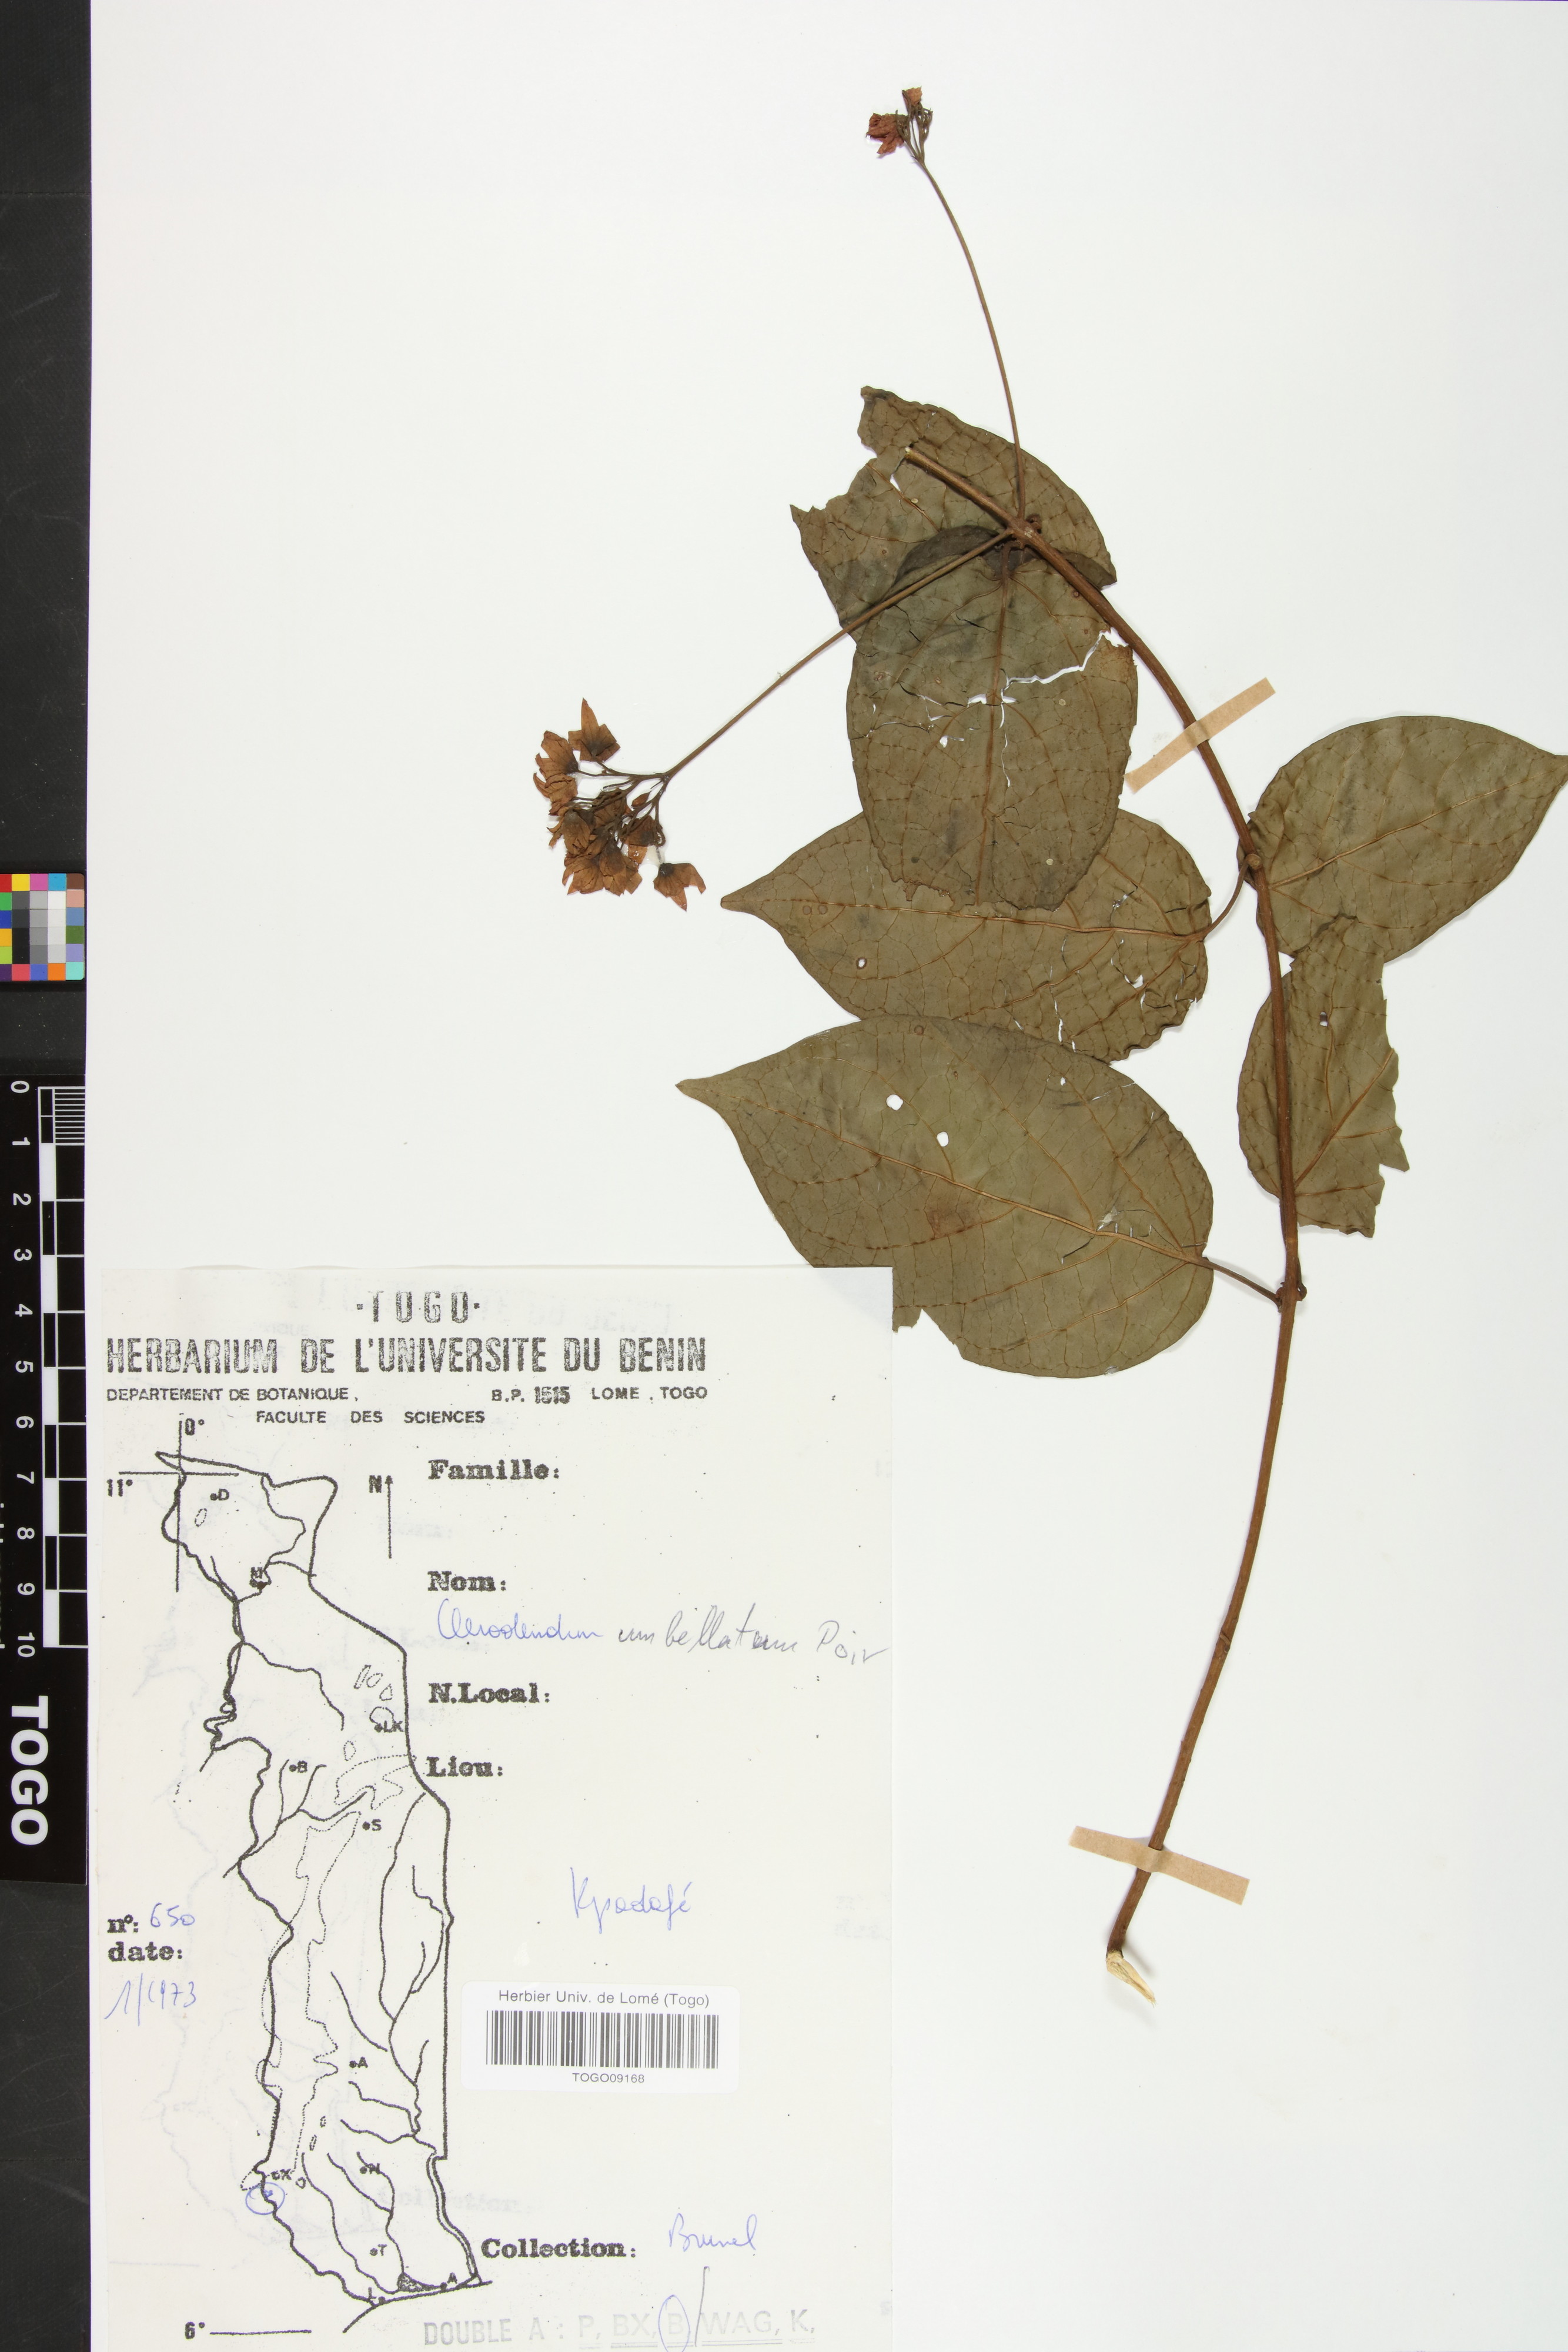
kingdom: Plantae
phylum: Tracheophyta
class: Magnoliopsida
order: Lamiales
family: Lamiaceae
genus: Clerodendrum
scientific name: Clerodendrum umbellatum
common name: Umbel clerodendrum
